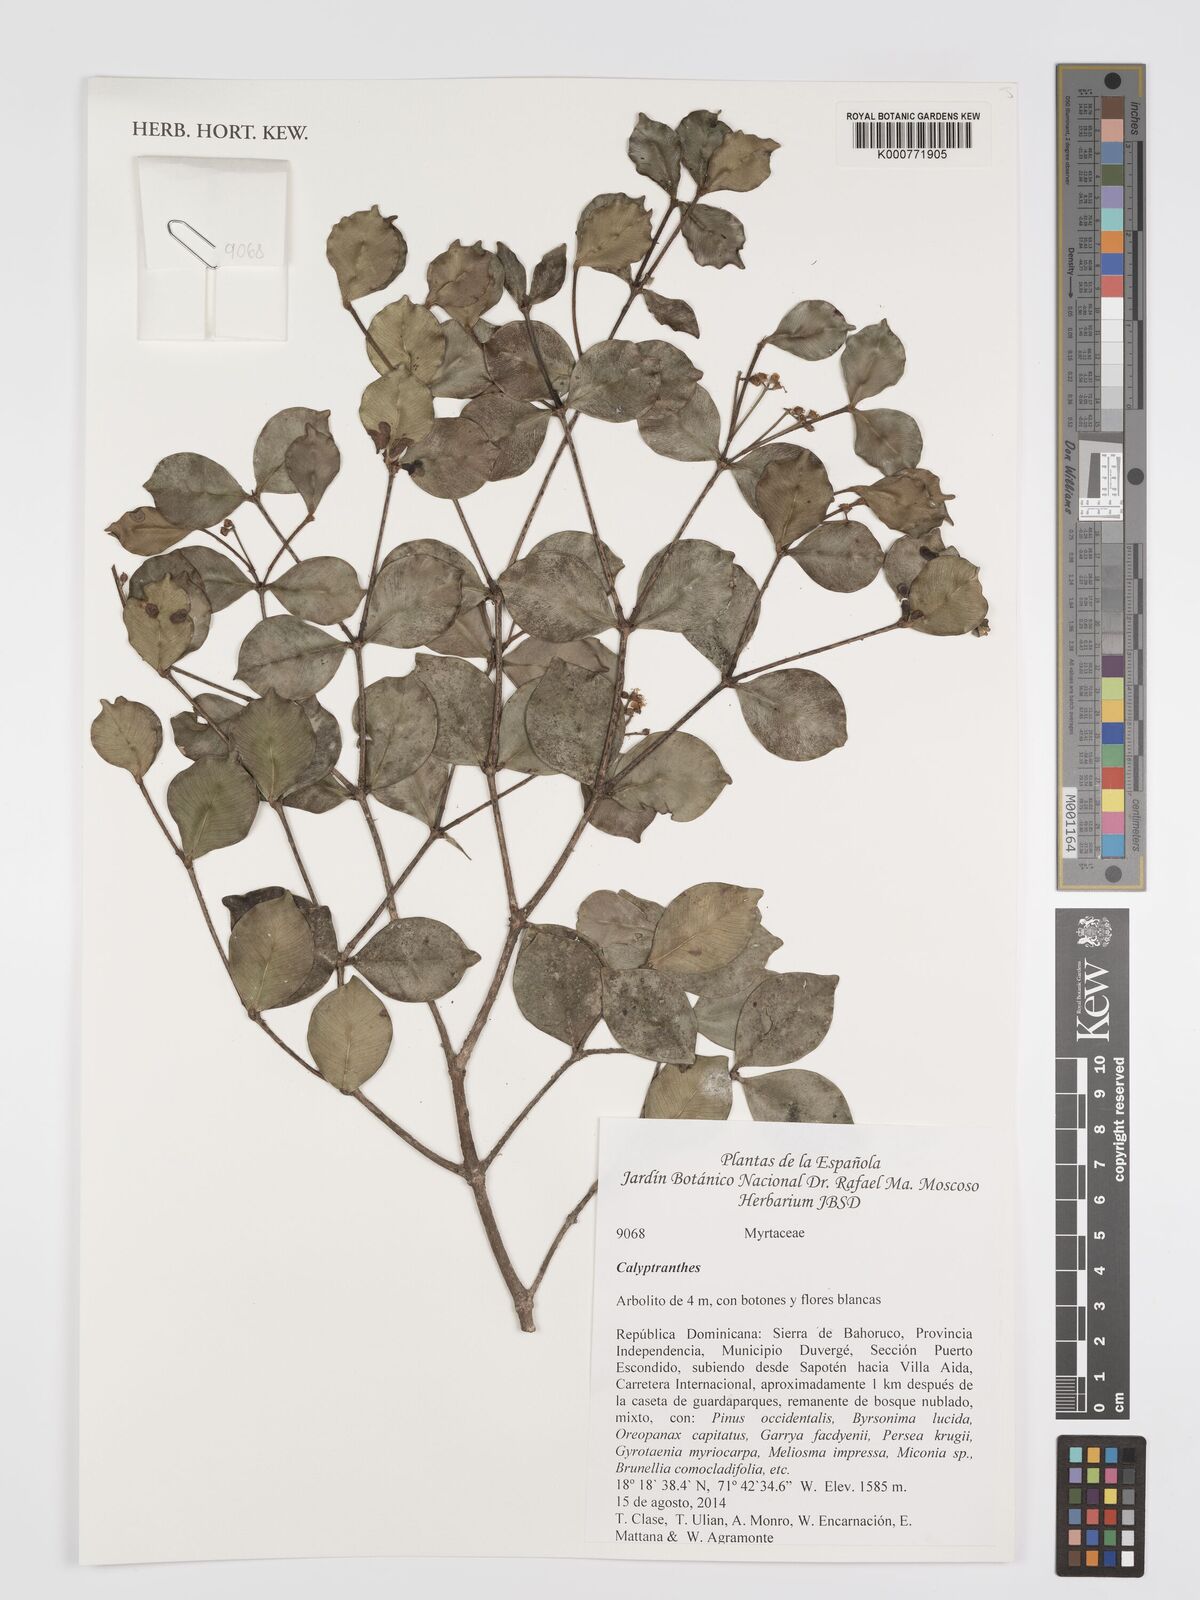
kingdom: Plantae
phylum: Tracheophyta
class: Magnoliopsida
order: Myrtales
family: Myrtaceae
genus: Calyptranthes
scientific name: Calyptranthes
